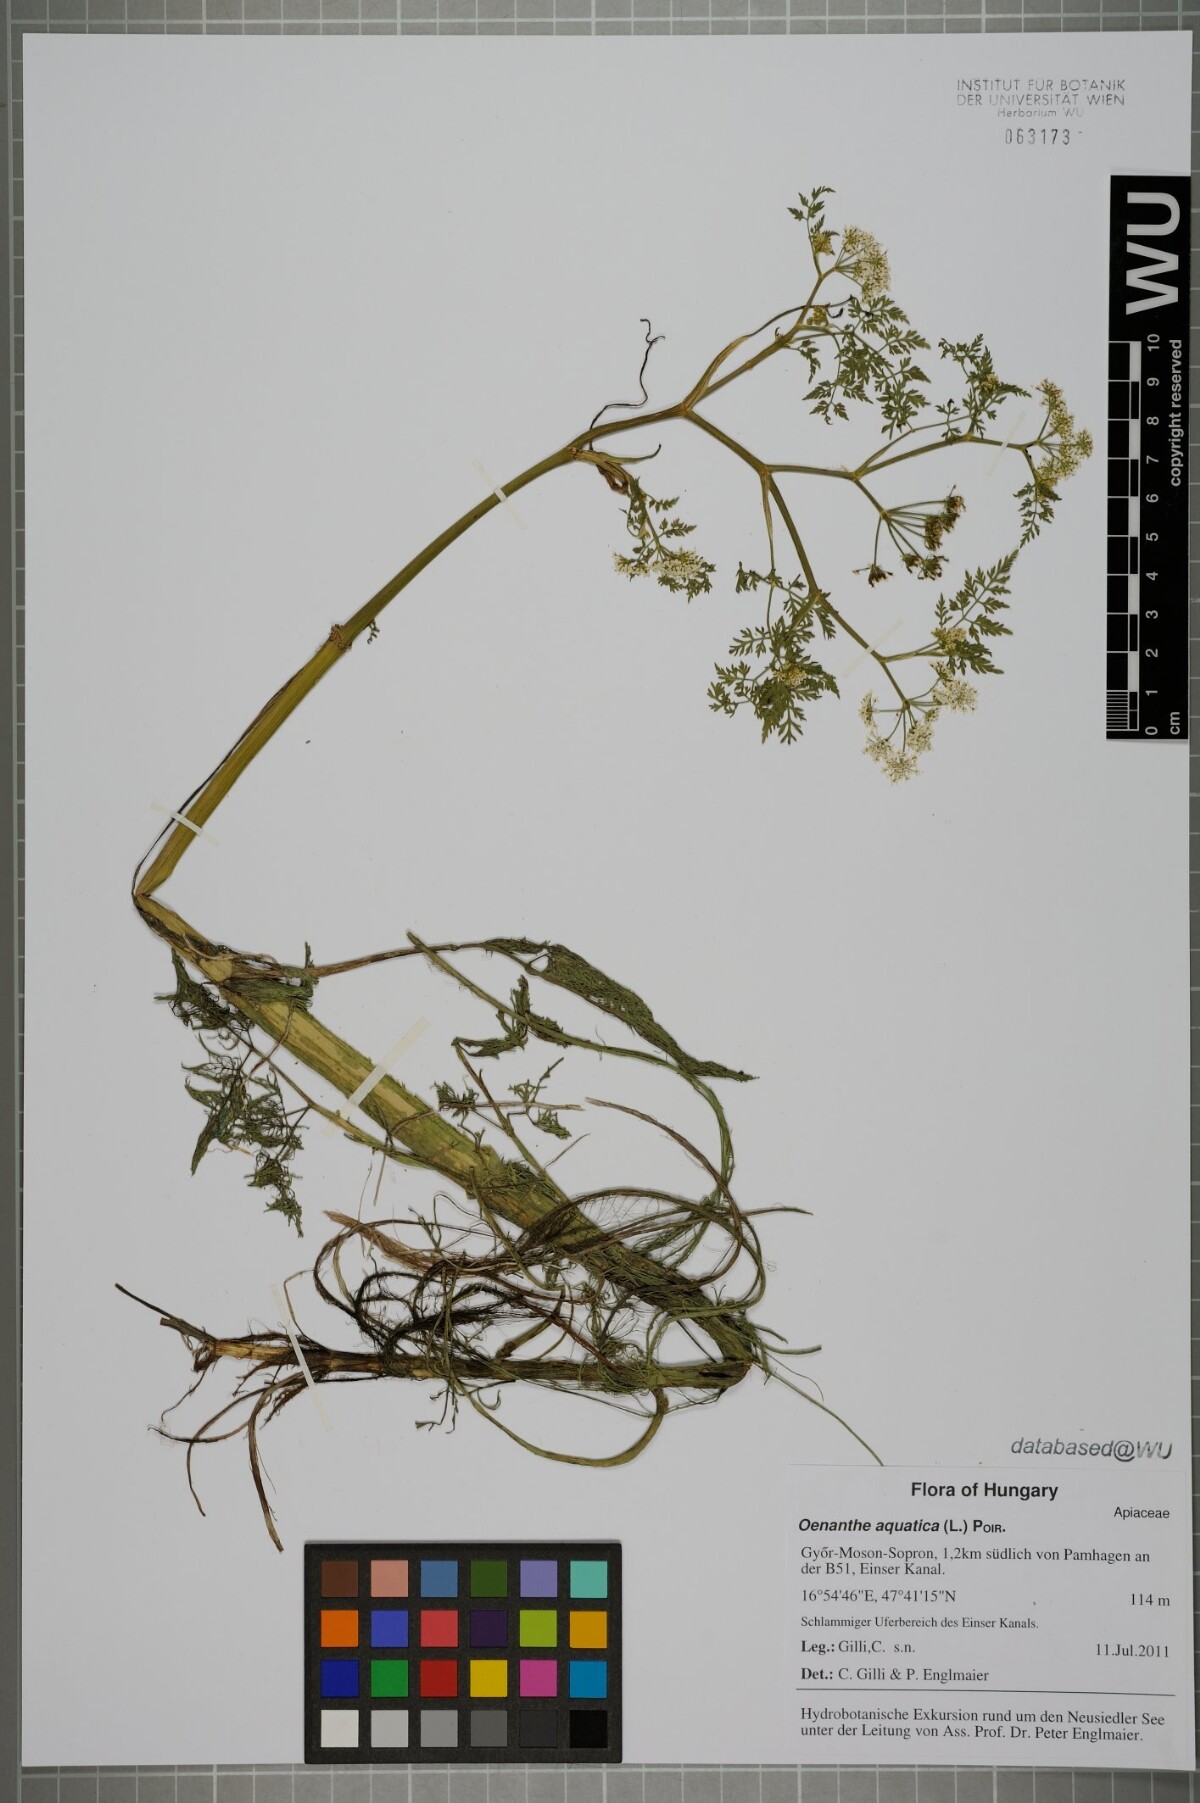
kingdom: Plantae
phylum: Tracheophyta
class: Magnoliopsida
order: Apiales
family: Apiaceae
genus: Oenanthe
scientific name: Oenanthe aquatica
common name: Fine-leaved water-dropwort
